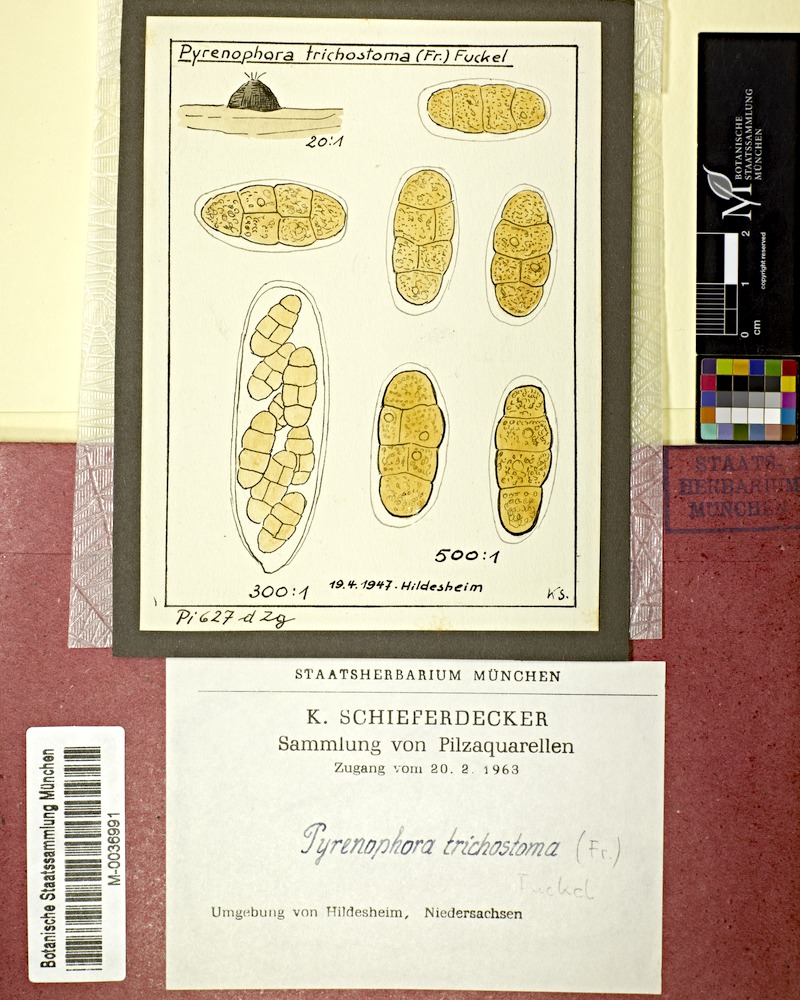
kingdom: Fungi
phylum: Ascomycota
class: Dothideomycetes
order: Pleosporales
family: Pleosporaceae
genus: Pyrenophora
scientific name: Pyrenophora tritici-repentis
